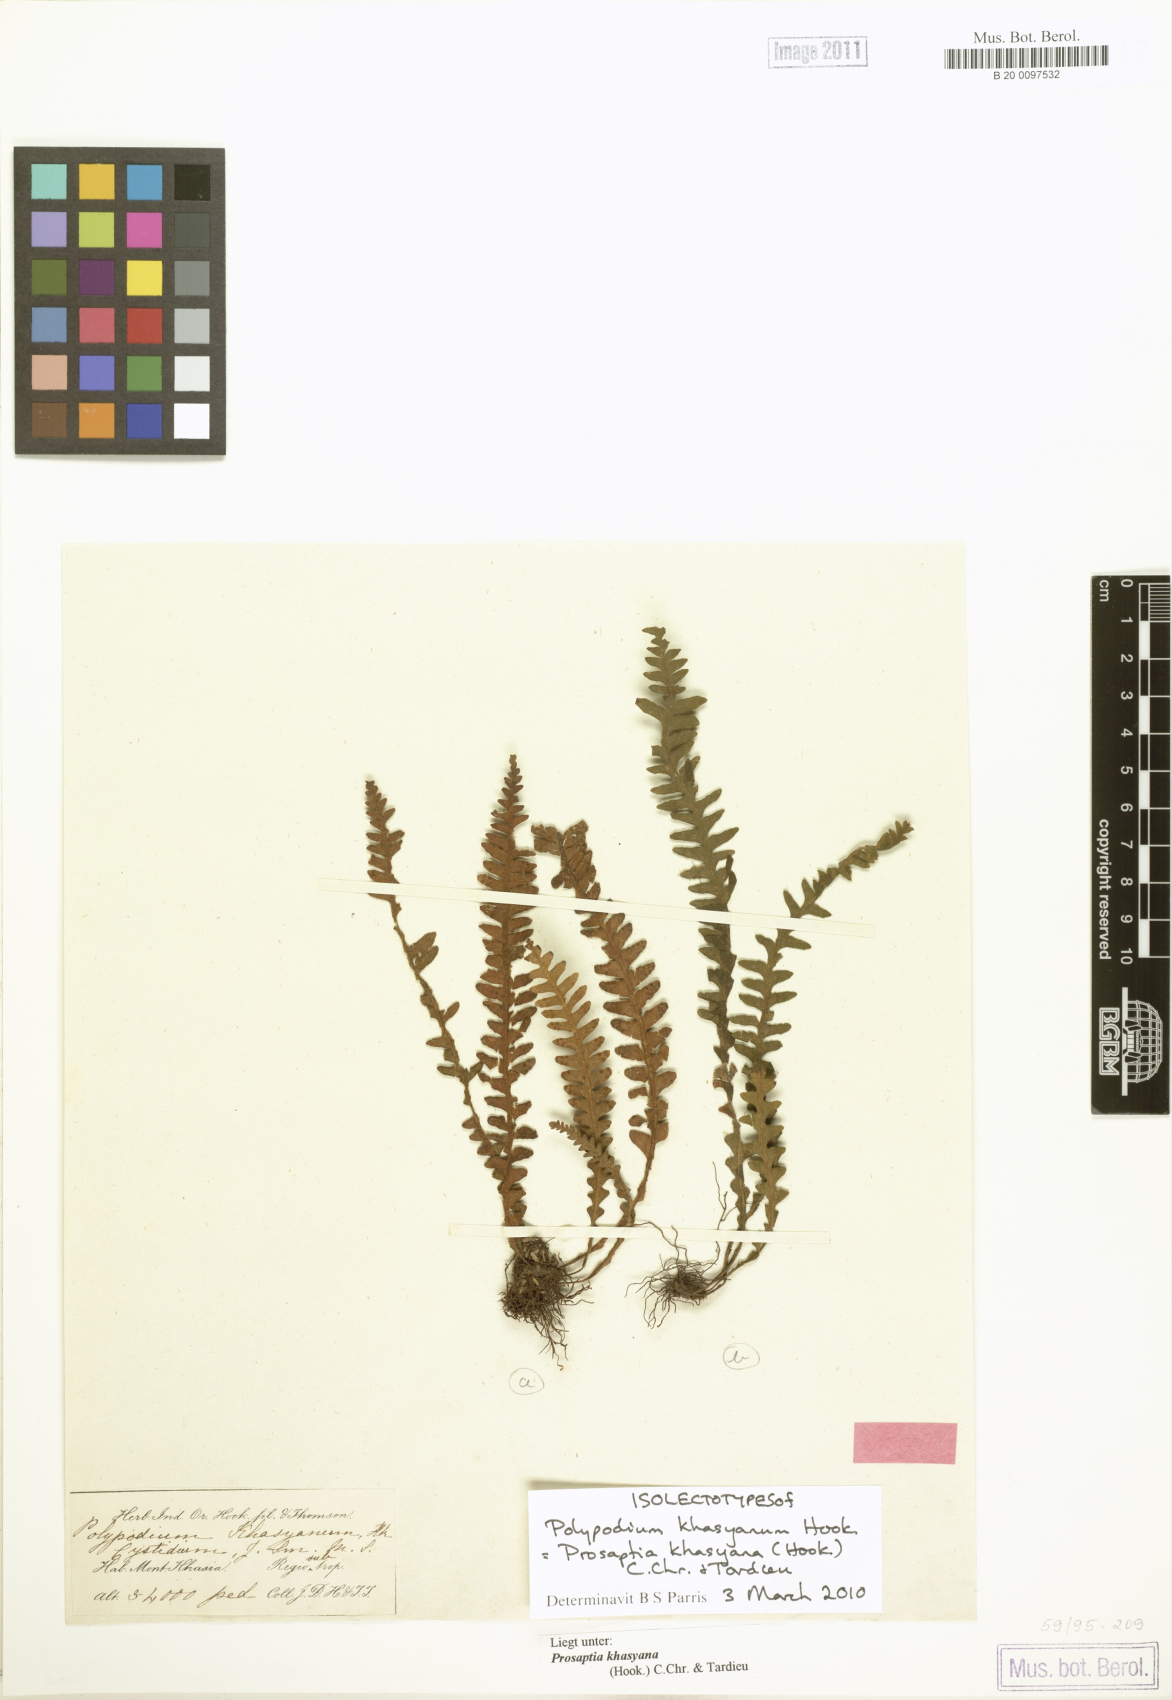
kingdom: Plantae
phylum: Tracheophyta
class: Polypodiopsida
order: Polypodiales
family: Polypodiaceae
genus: Polypodium
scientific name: Polypodium khasyanum
